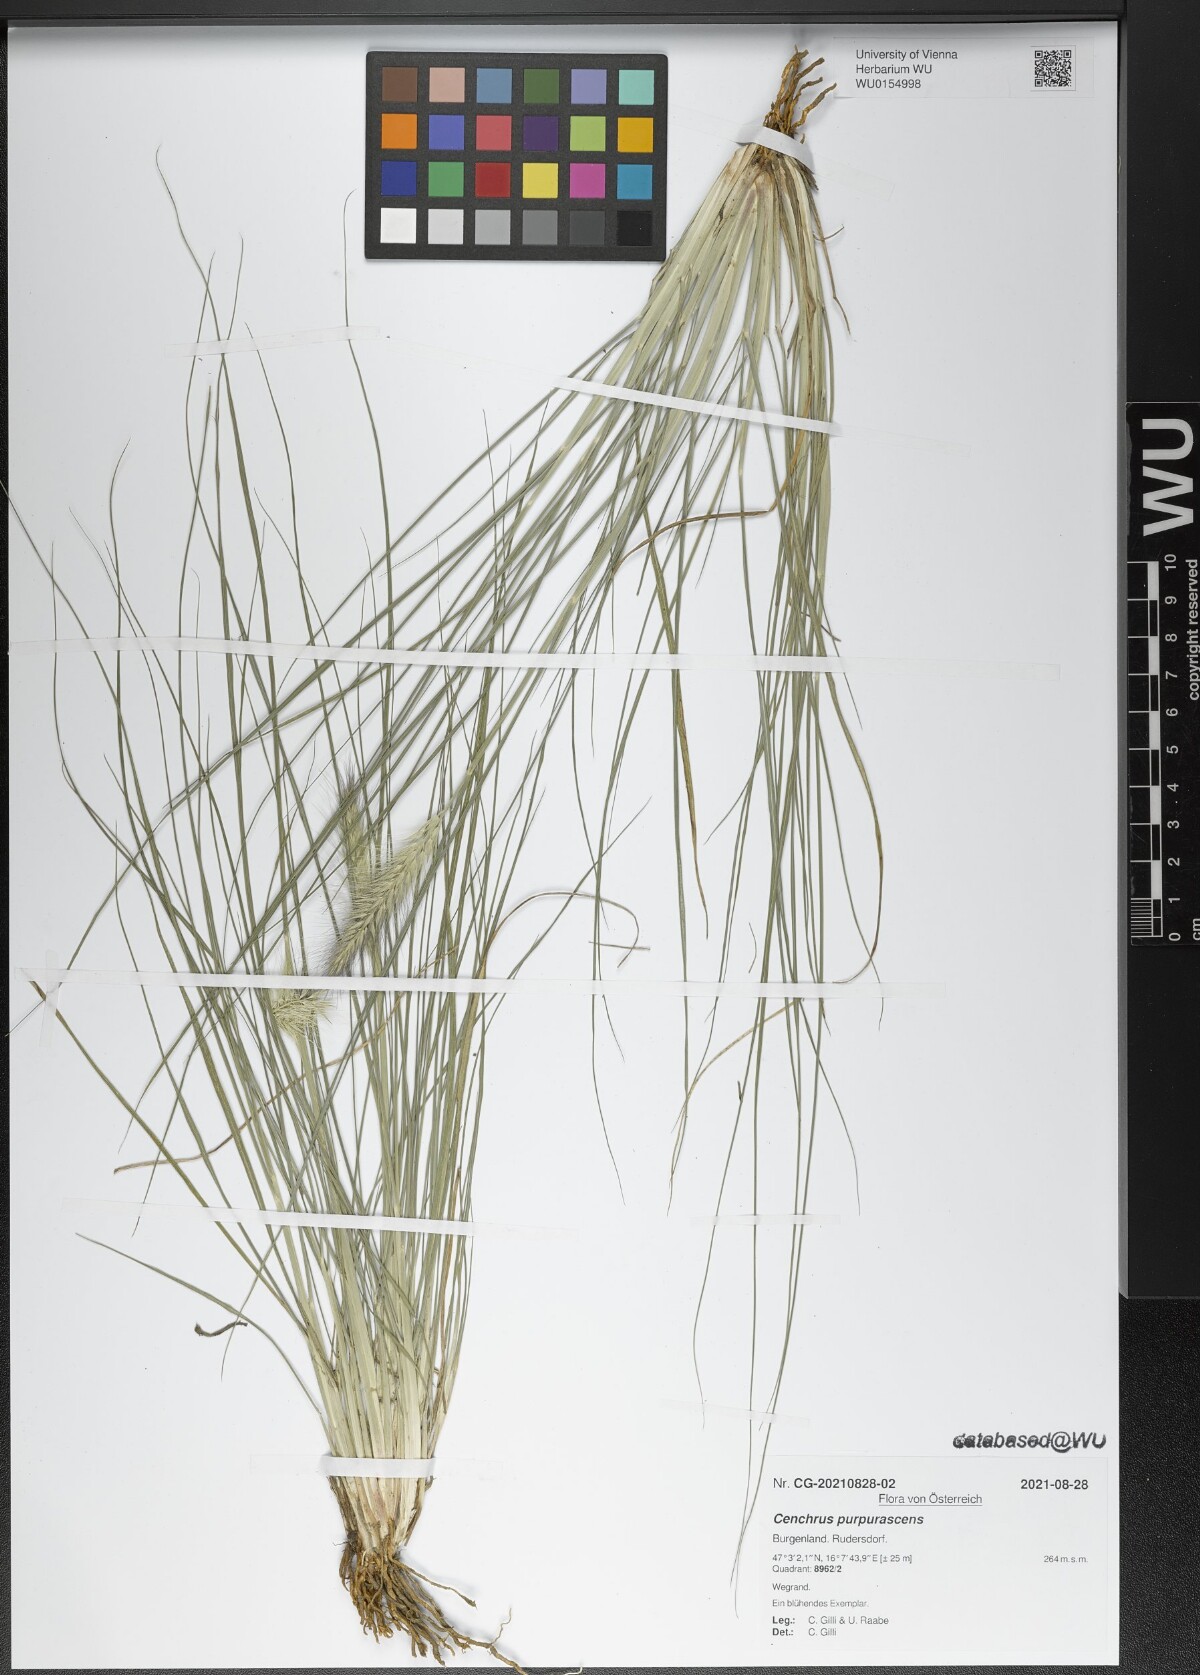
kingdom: Plantae
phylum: Tracheophyta
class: Liliopsida
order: Poales
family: Poaceae
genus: Cenchrus
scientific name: Cenchrus alopecuroides
